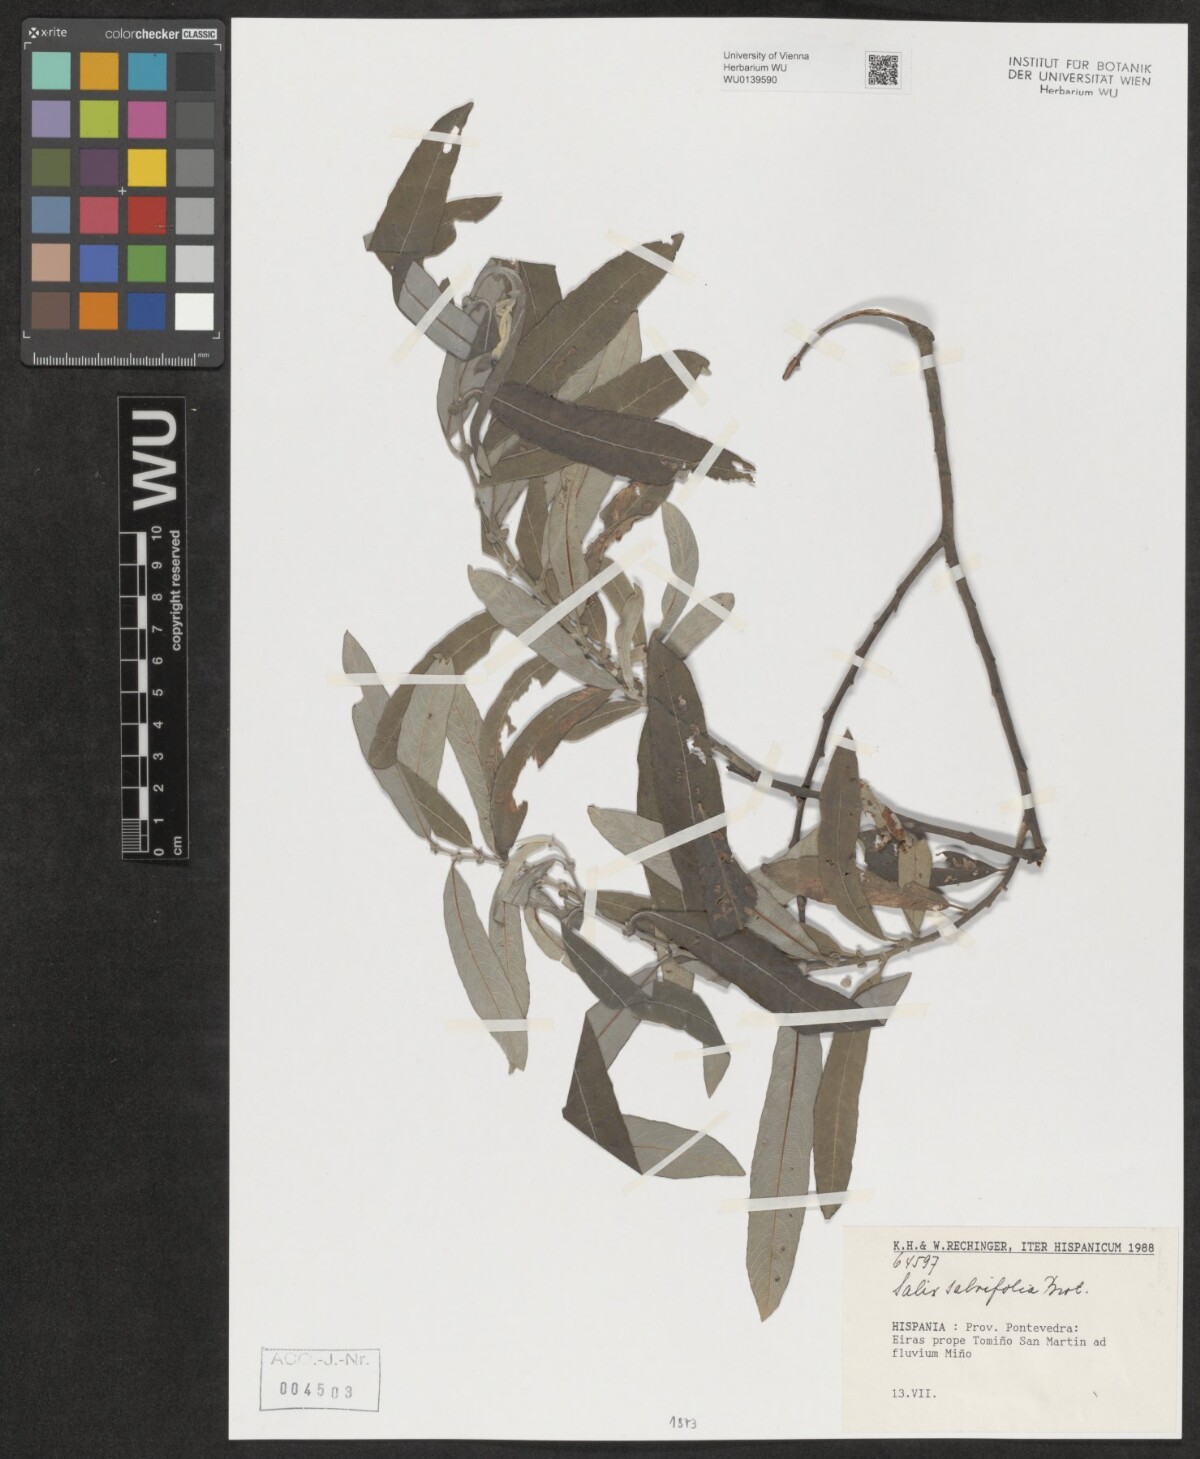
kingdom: Plantae
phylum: Tracheophyta
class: Magnoliopsida
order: Malpighiales
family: Salicaceae
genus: Salix
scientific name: Salix salviifolia
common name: Salvia-leaf willow
